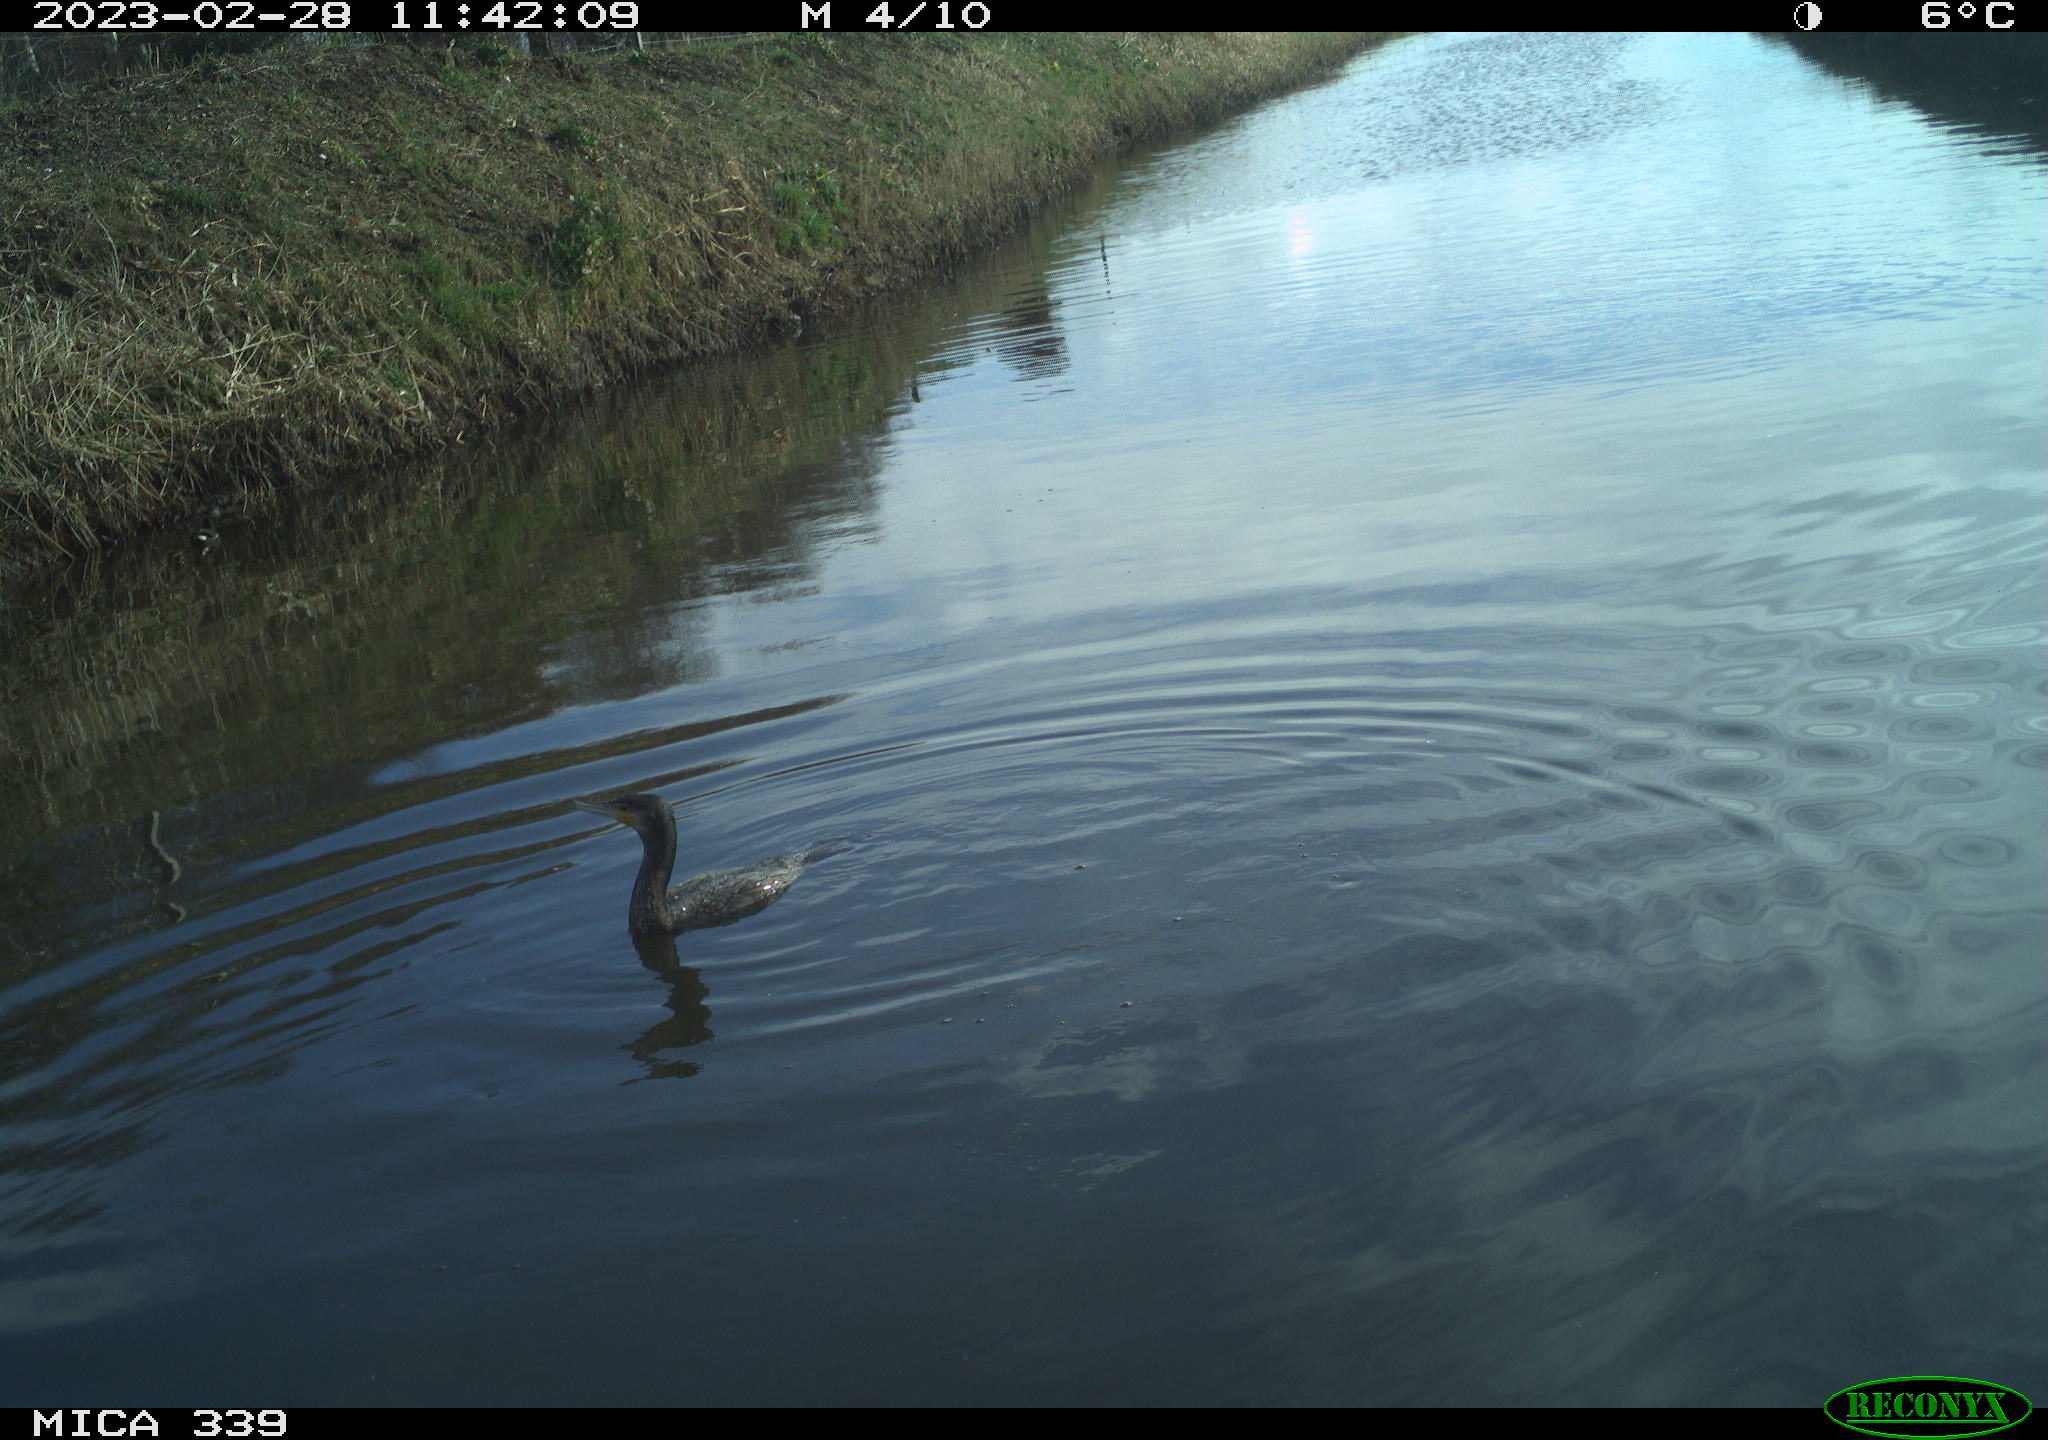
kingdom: Animalia
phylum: Chordata
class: Aves
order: Suliformes
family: Phalacrocoracidae
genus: Phalacrocorax
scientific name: Phalacrocorax carbo
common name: Great cormorant
